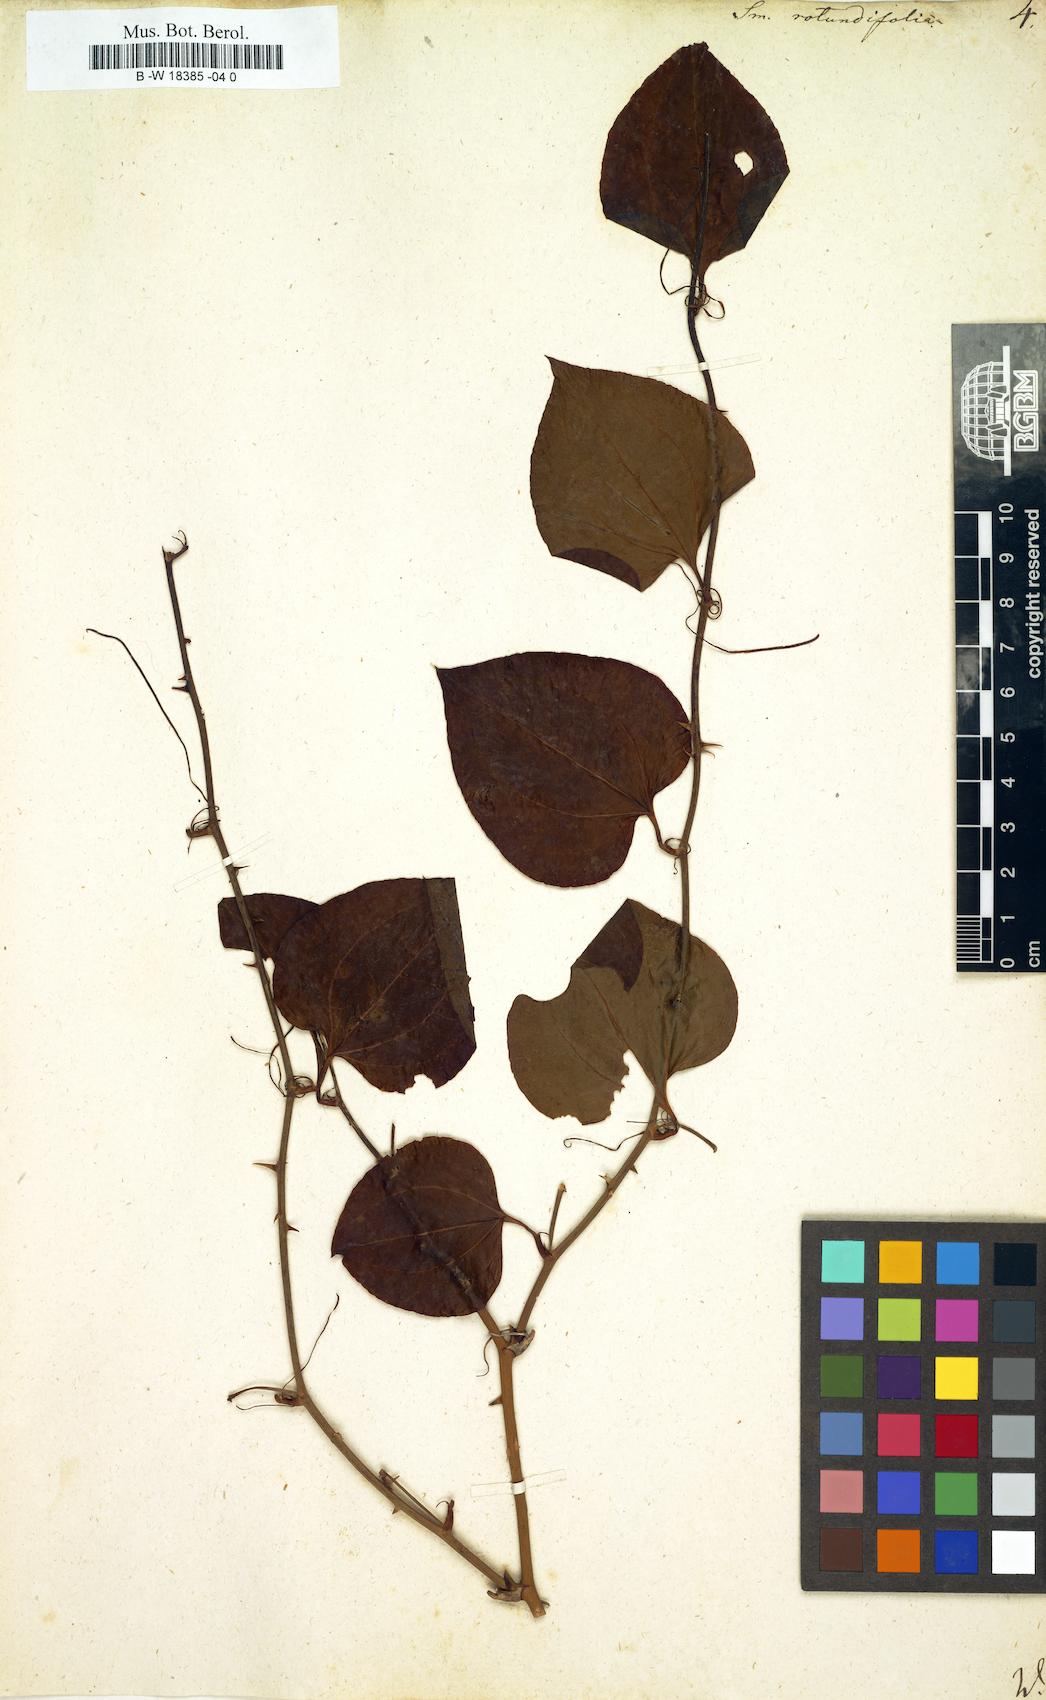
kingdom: Plantae
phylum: Tracheophyta
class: Liliopsida
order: Liliales
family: Smilacaceae
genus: Smilax
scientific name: Smilax rotundifolia
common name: Bullbriar
